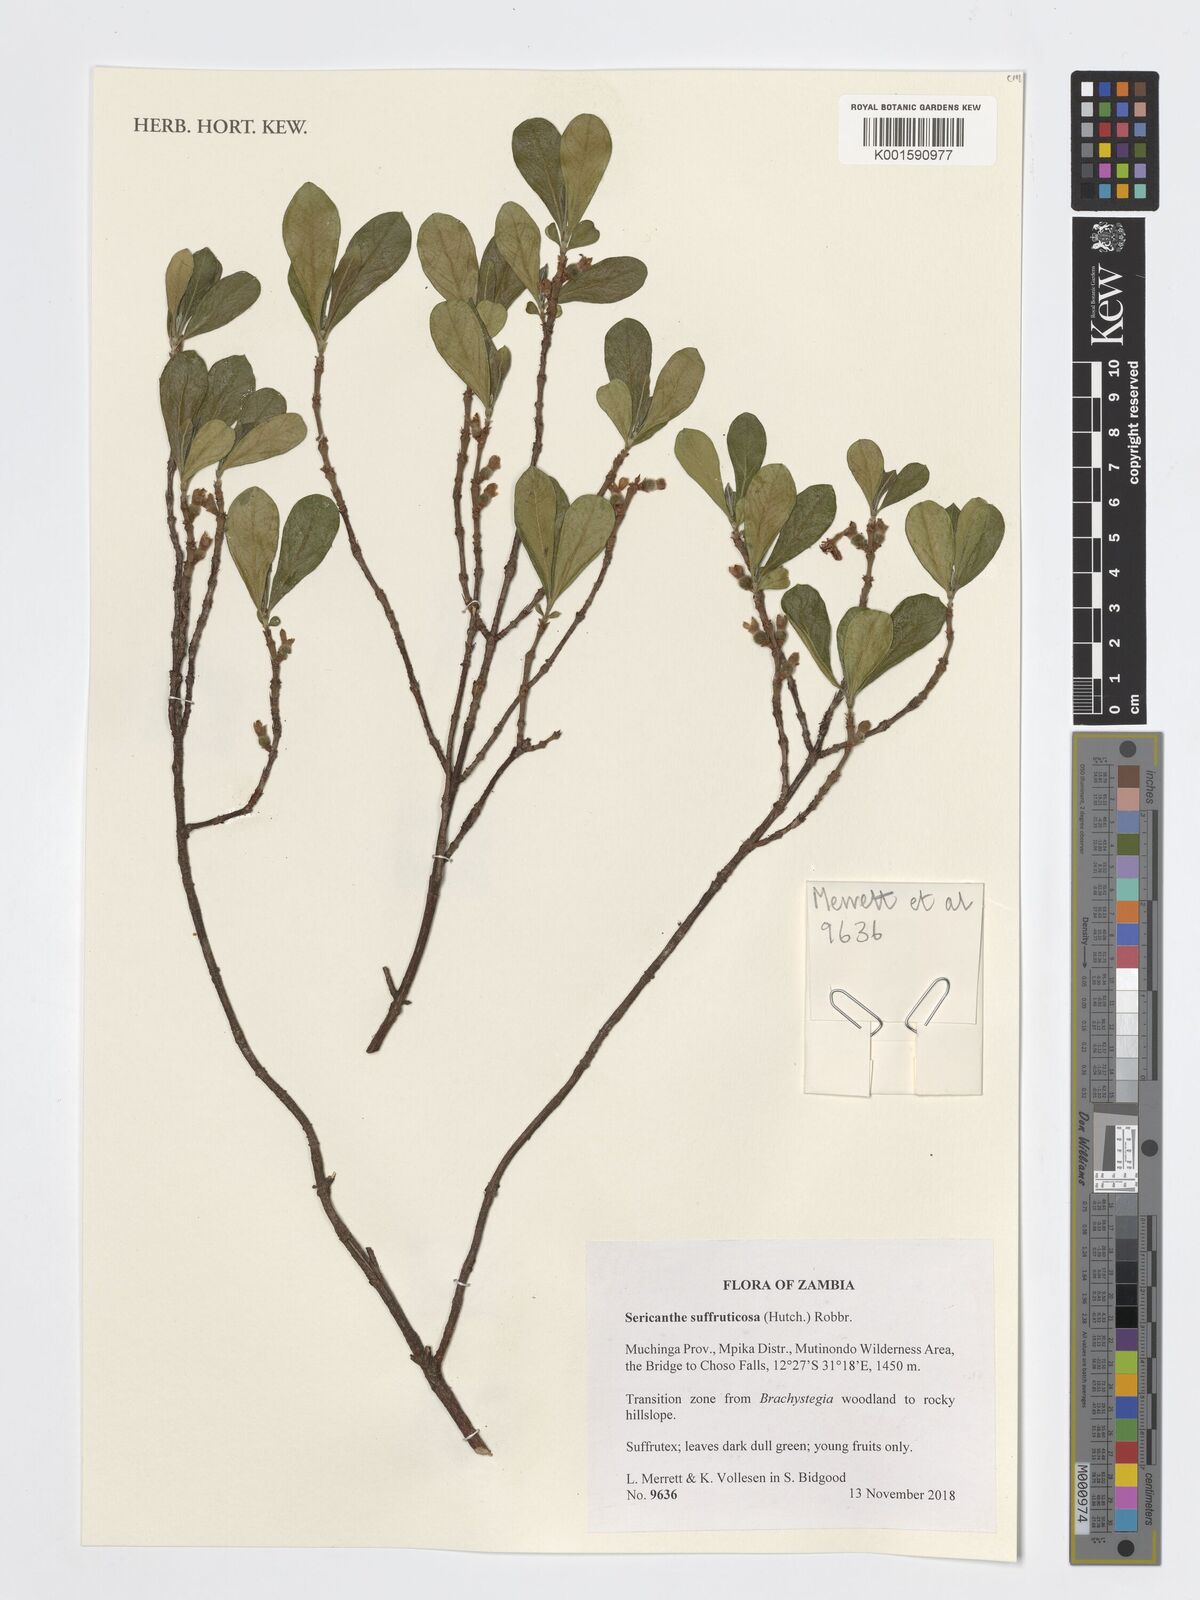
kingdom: Plantae
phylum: Tracheophyta
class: Magnoliopsida
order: Gentianales
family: Rubiaceae
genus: Sericanthe
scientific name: Sericanthe suffruticosa
